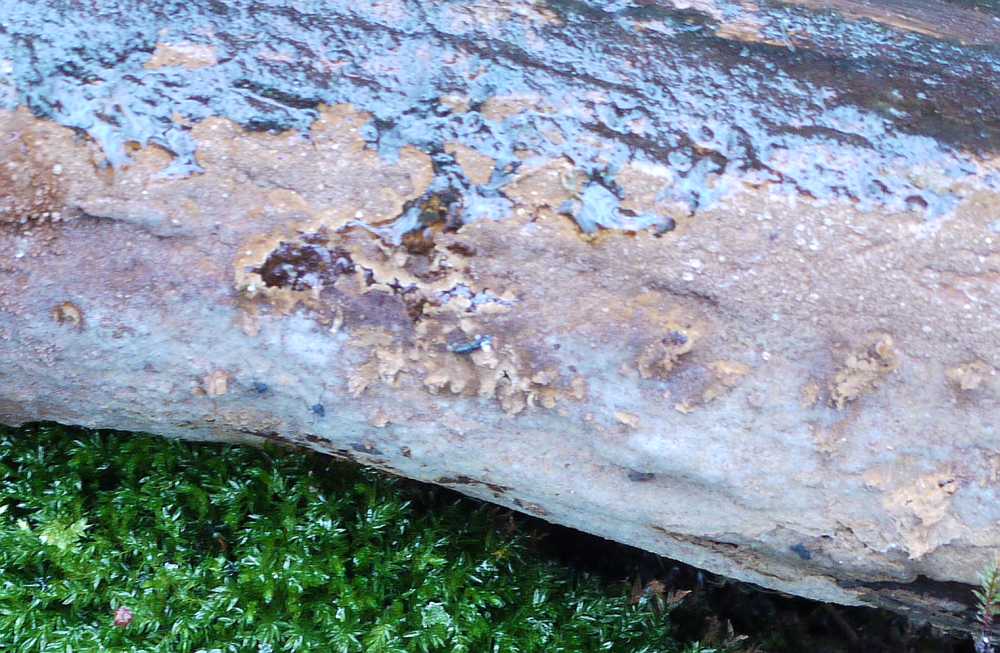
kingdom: Fungi
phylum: Basidiomycota
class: Agaricomycetes
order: Hymenochaetales
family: Hymenochaetaceae
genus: Fuscoporia
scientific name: Fuscoporia ferruginosa
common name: rustbrun ildporesvamp
